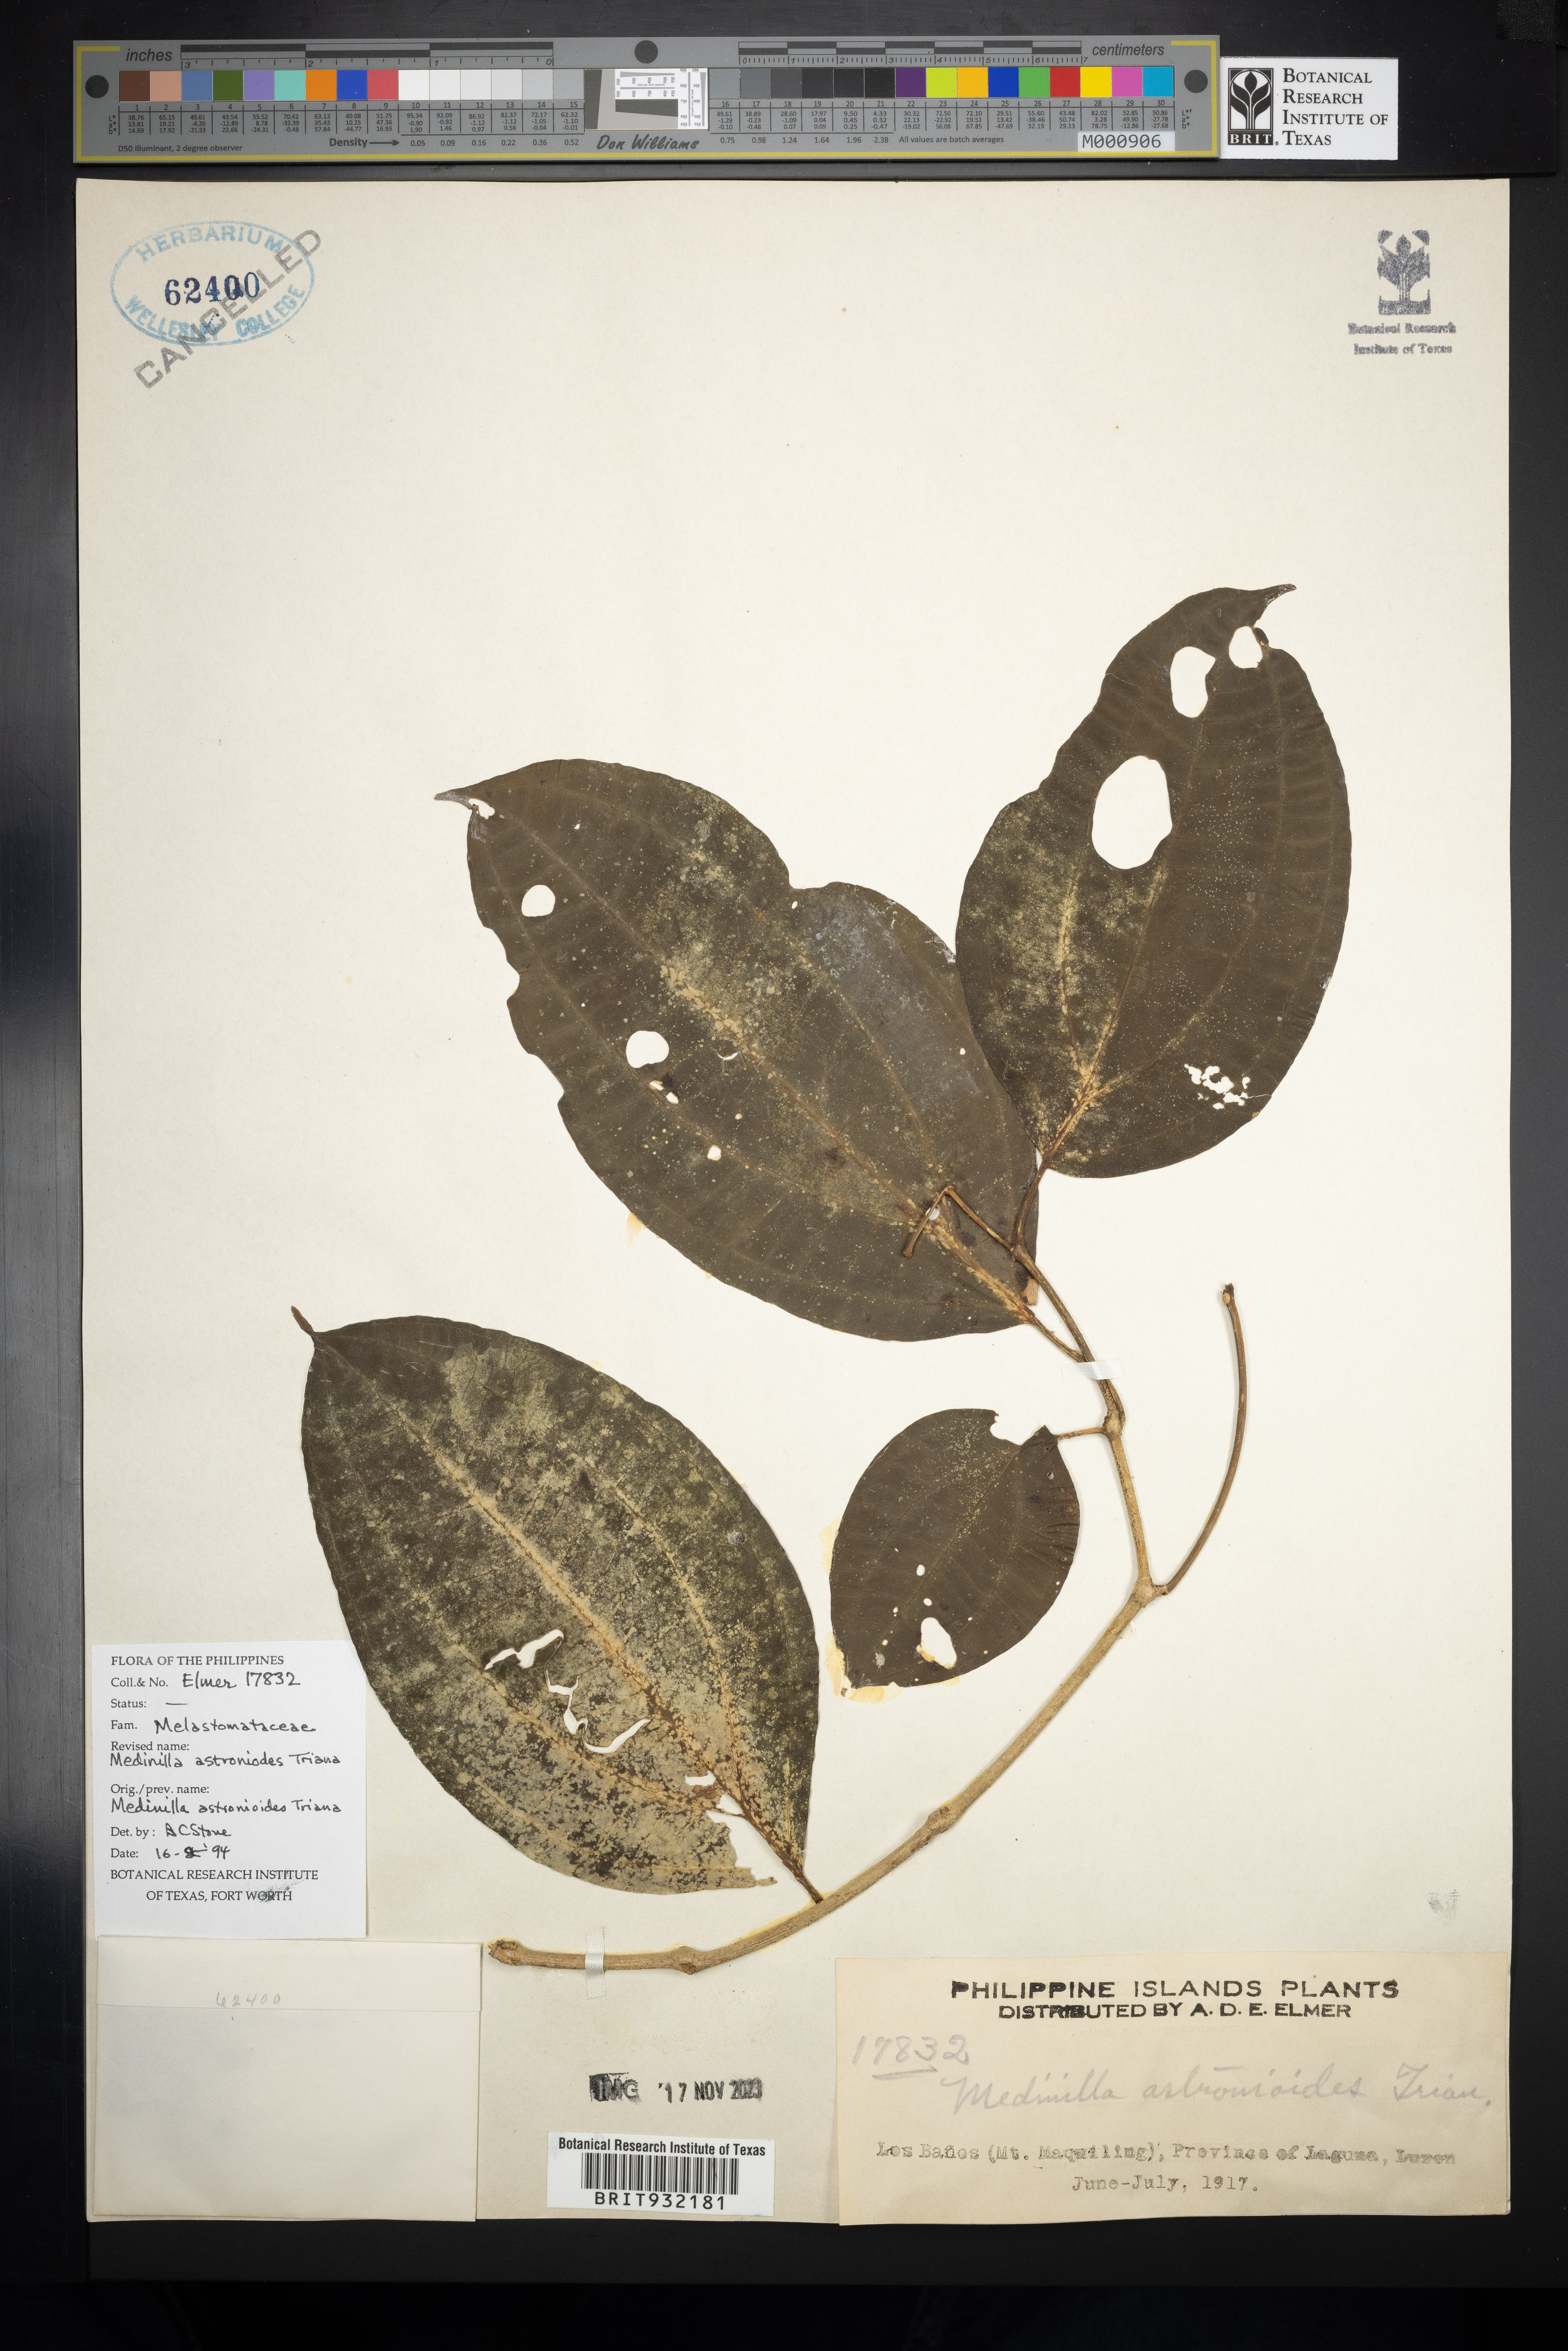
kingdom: Plantae
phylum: Tracheophyta
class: Magnoliopsida
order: Myrtales
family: Melastomataceae
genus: Medinilla
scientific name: Medinilla
